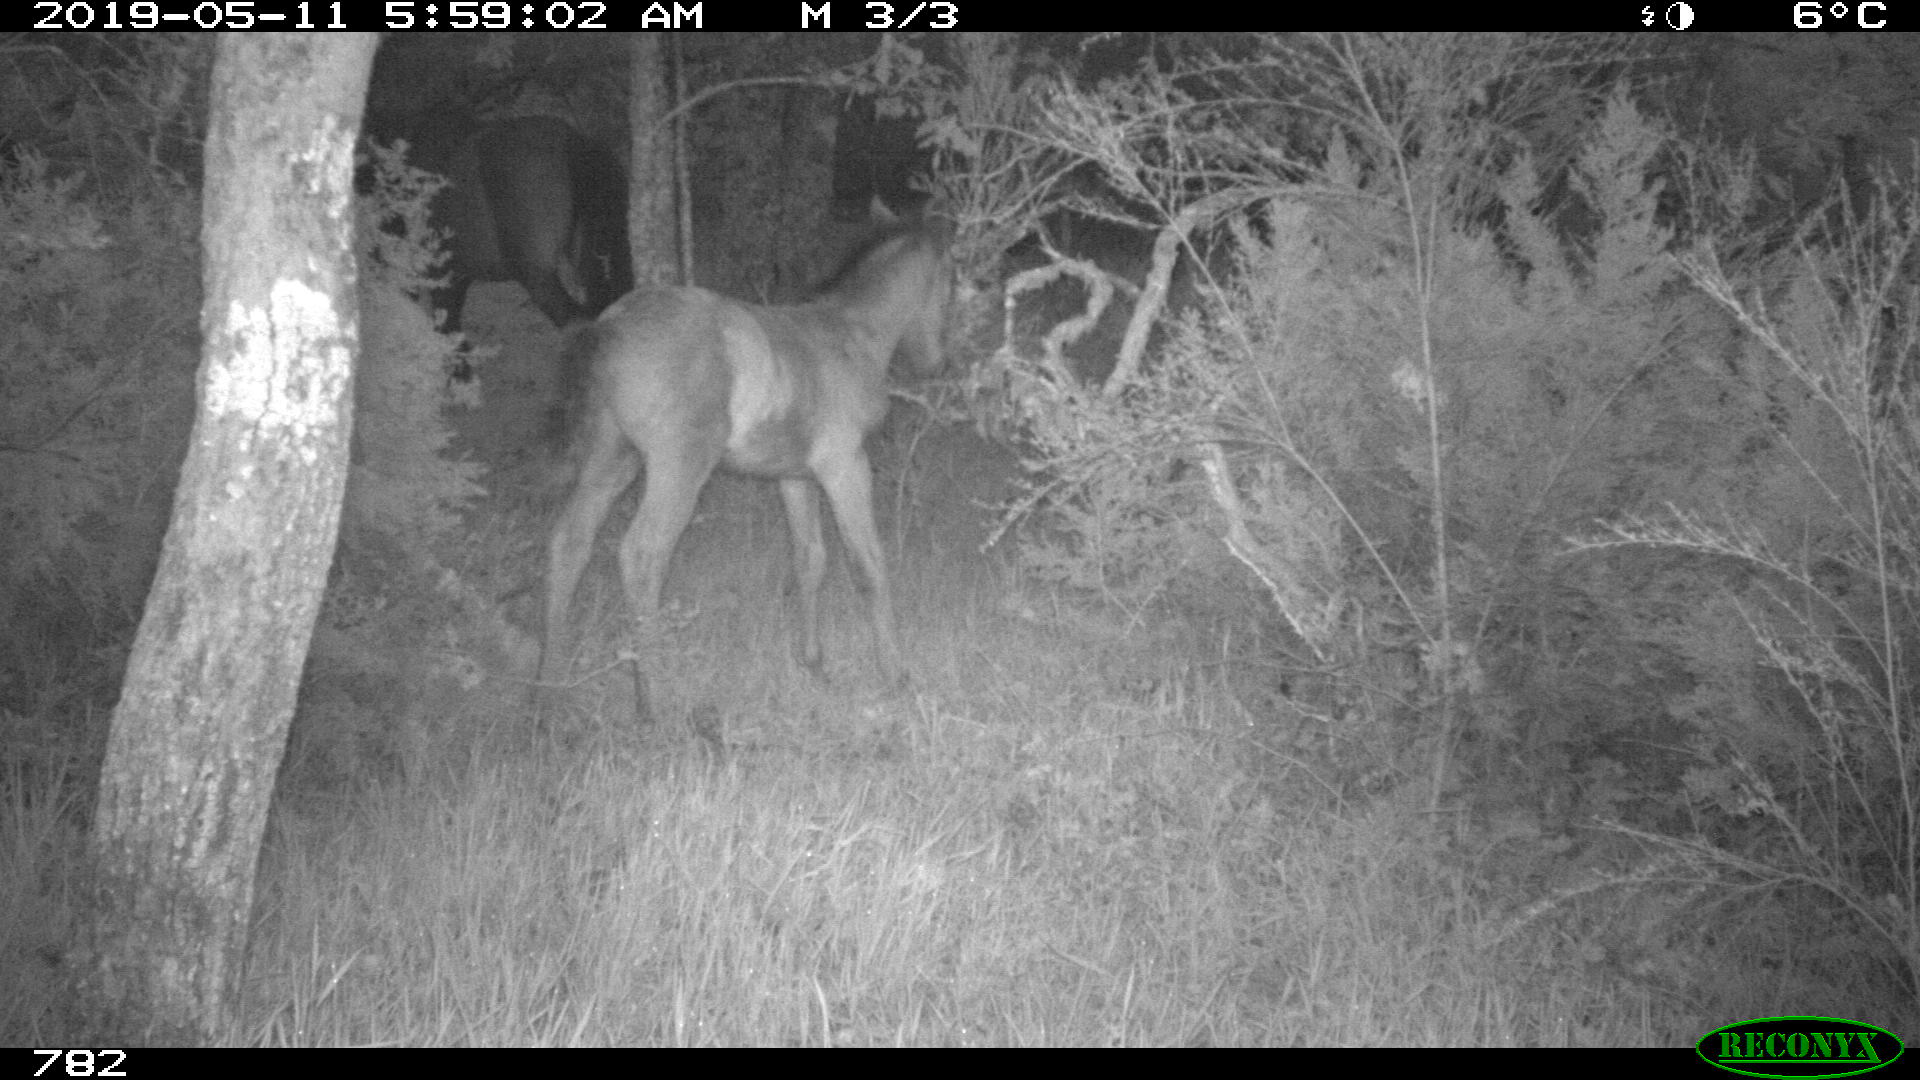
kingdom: Animalia
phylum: Chordata
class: Mammalia
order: Perissodactyla
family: Equidae
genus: Equus
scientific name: Equus caballus
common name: Horse
